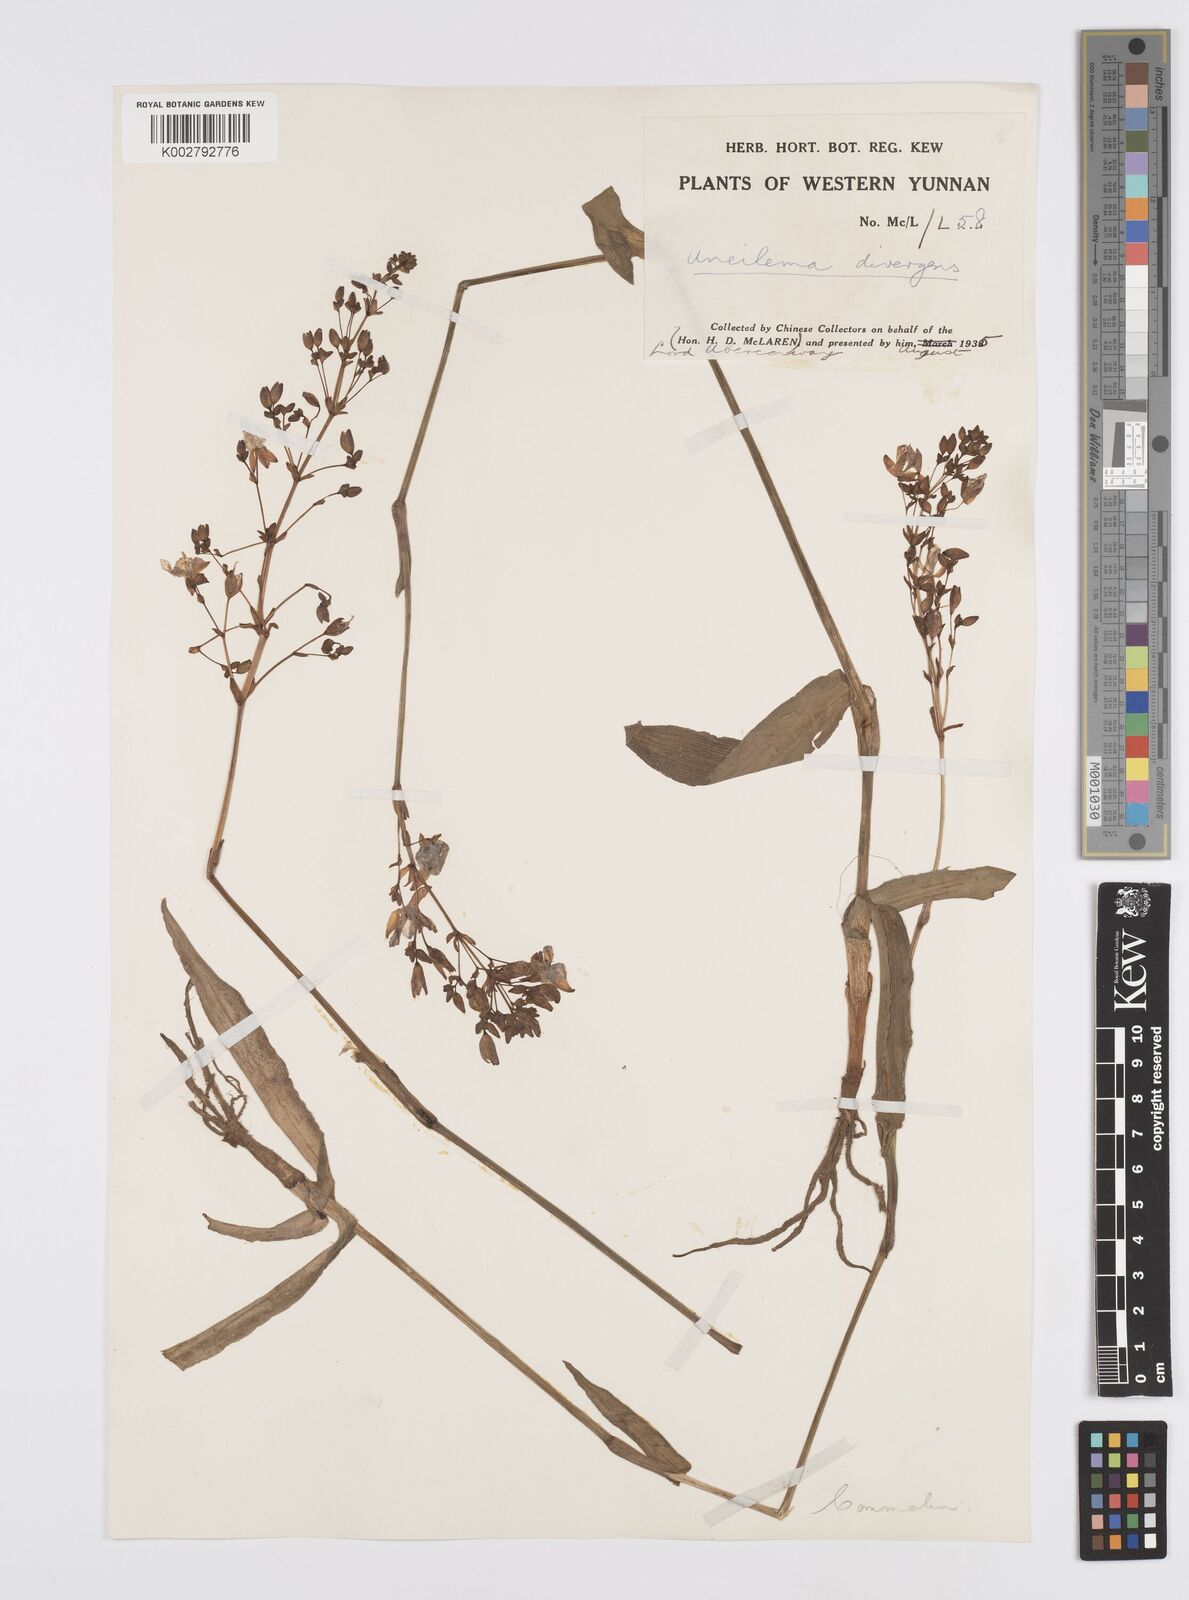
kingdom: Plantae
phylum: Tracheophyta
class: Liliopsida
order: Commelinales
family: Commelinaceae
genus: Murdannia
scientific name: Murdannia divergens
